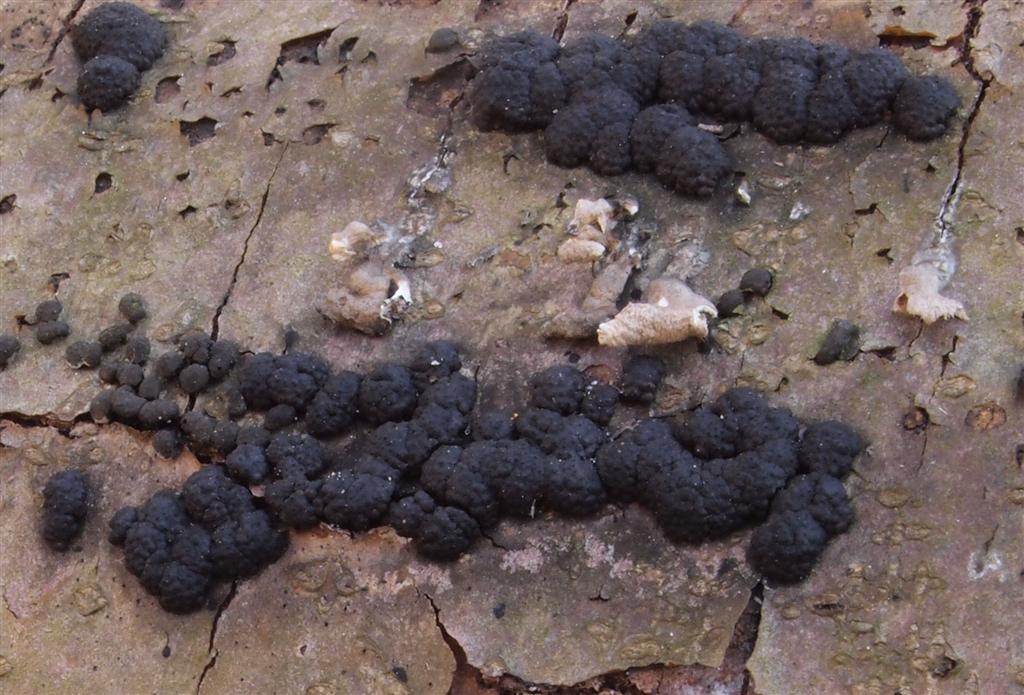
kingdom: Fungi
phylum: Ascomycota
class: Sordariomycetes
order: Xylariales
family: Hypoxylaceae
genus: Jackrogersella
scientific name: Jackrogersella cohaerens
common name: sammenflydende kulbær
